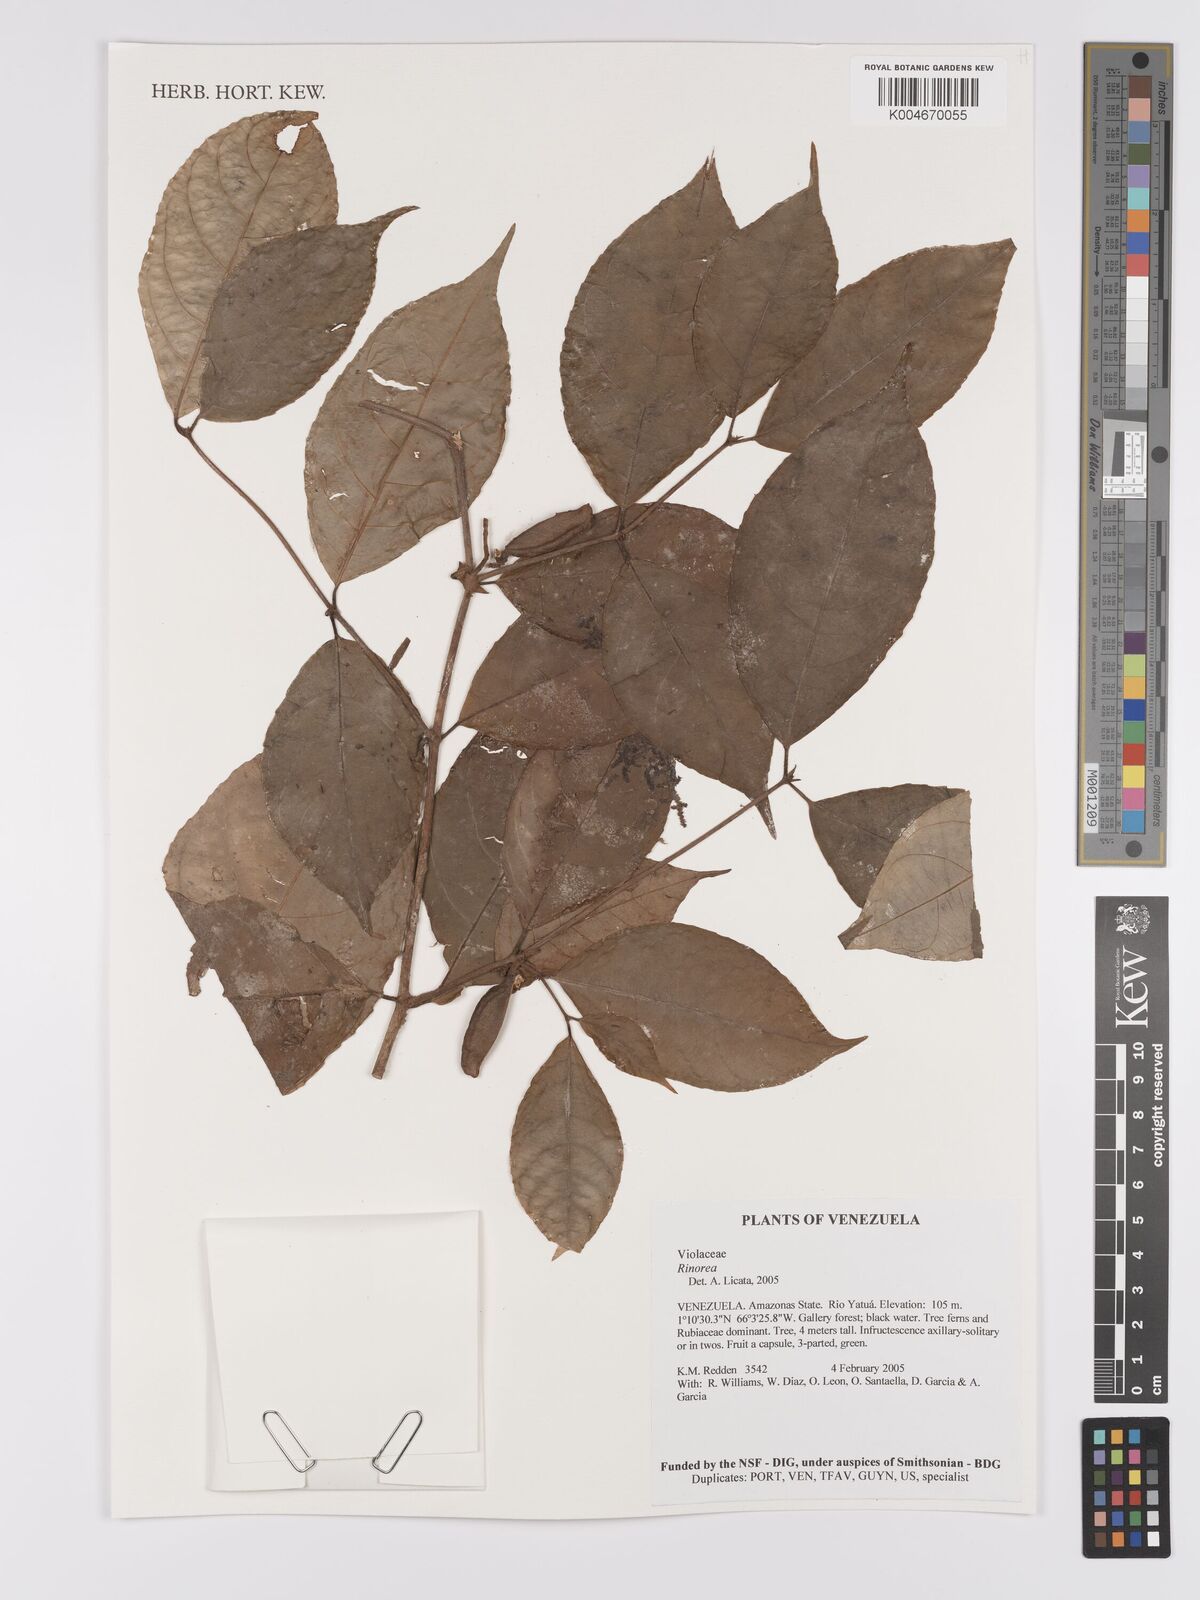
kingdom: Plantae
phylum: Tracheophyta
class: Magnoliopsida
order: Malpighiales
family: Violaceae
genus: Rinorea
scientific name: Rinorea
